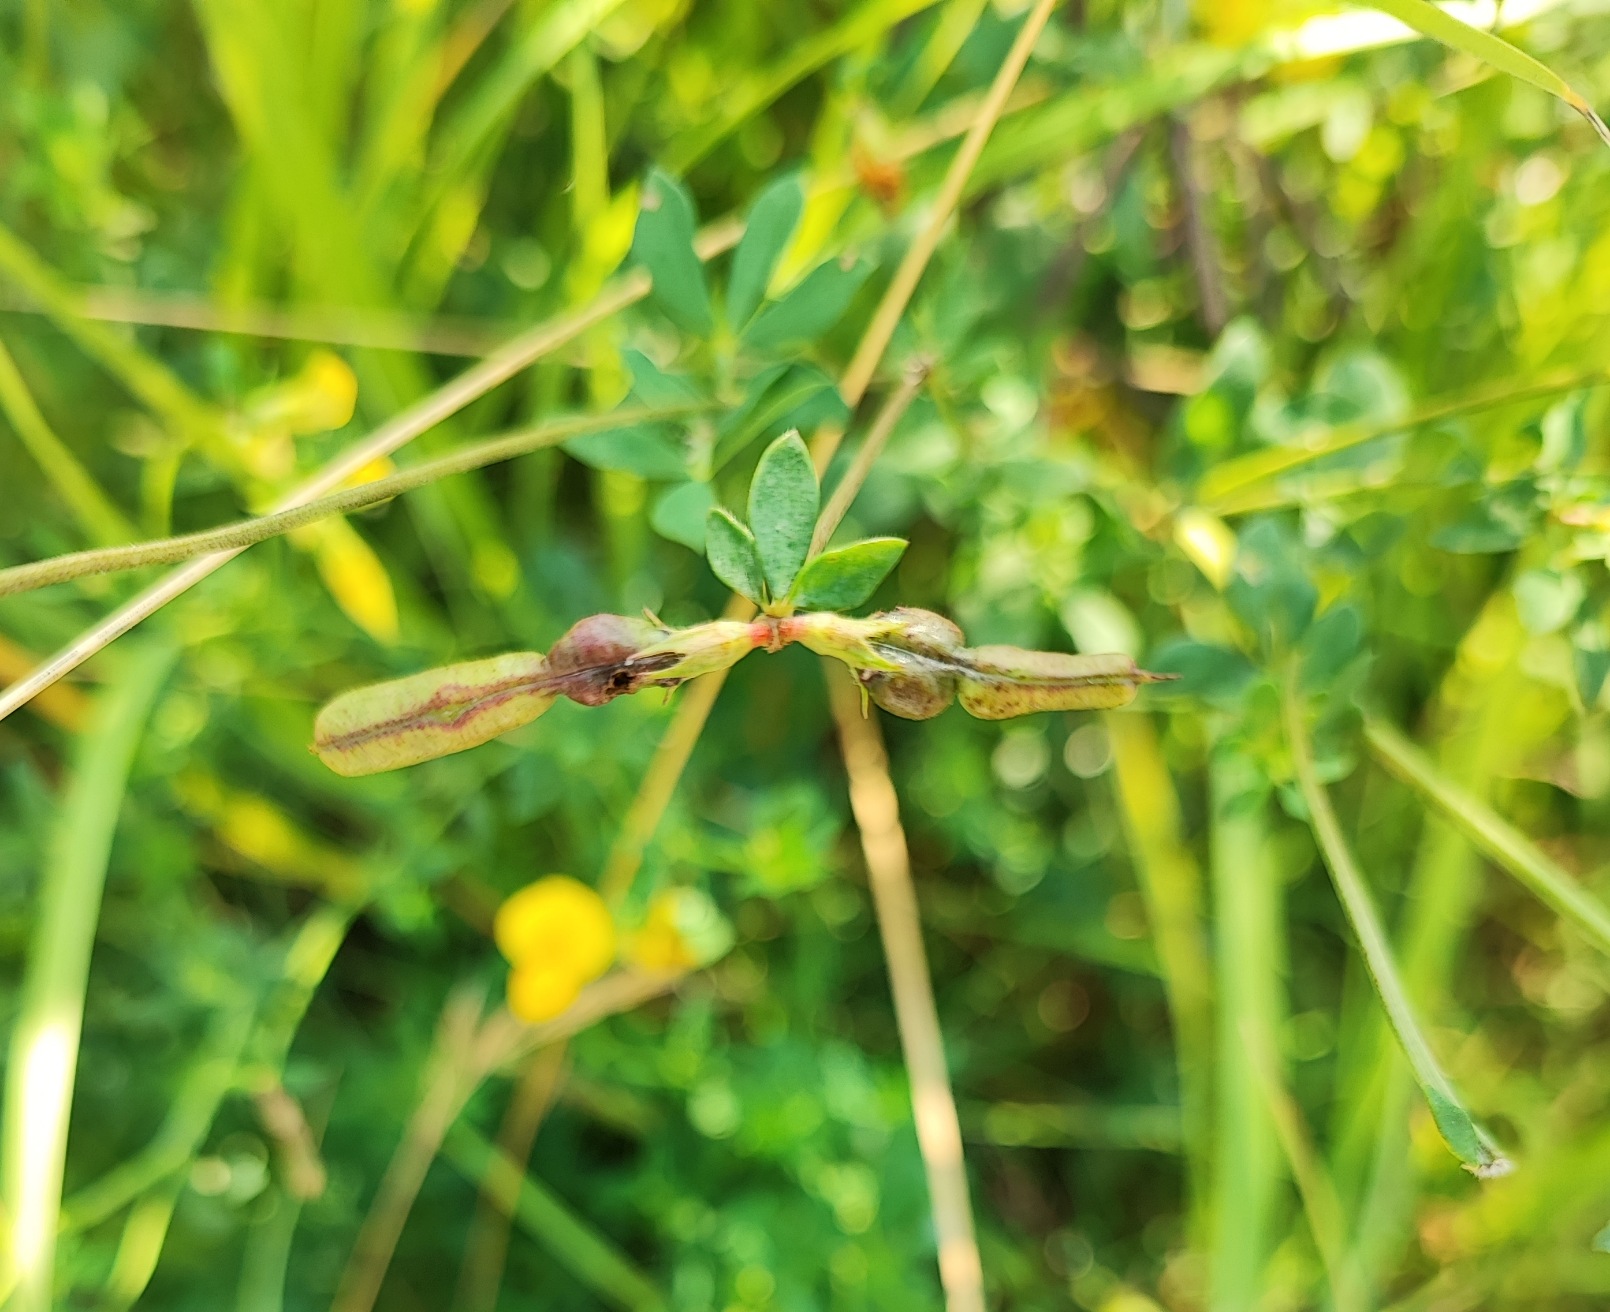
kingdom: Animalia
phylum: Arthropoda
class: Insecta
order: Diptera
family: Cecidomyiidae
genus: Asphondylia
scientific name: Asphondylia melanopus
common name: Kællingetandbælggalmyg
